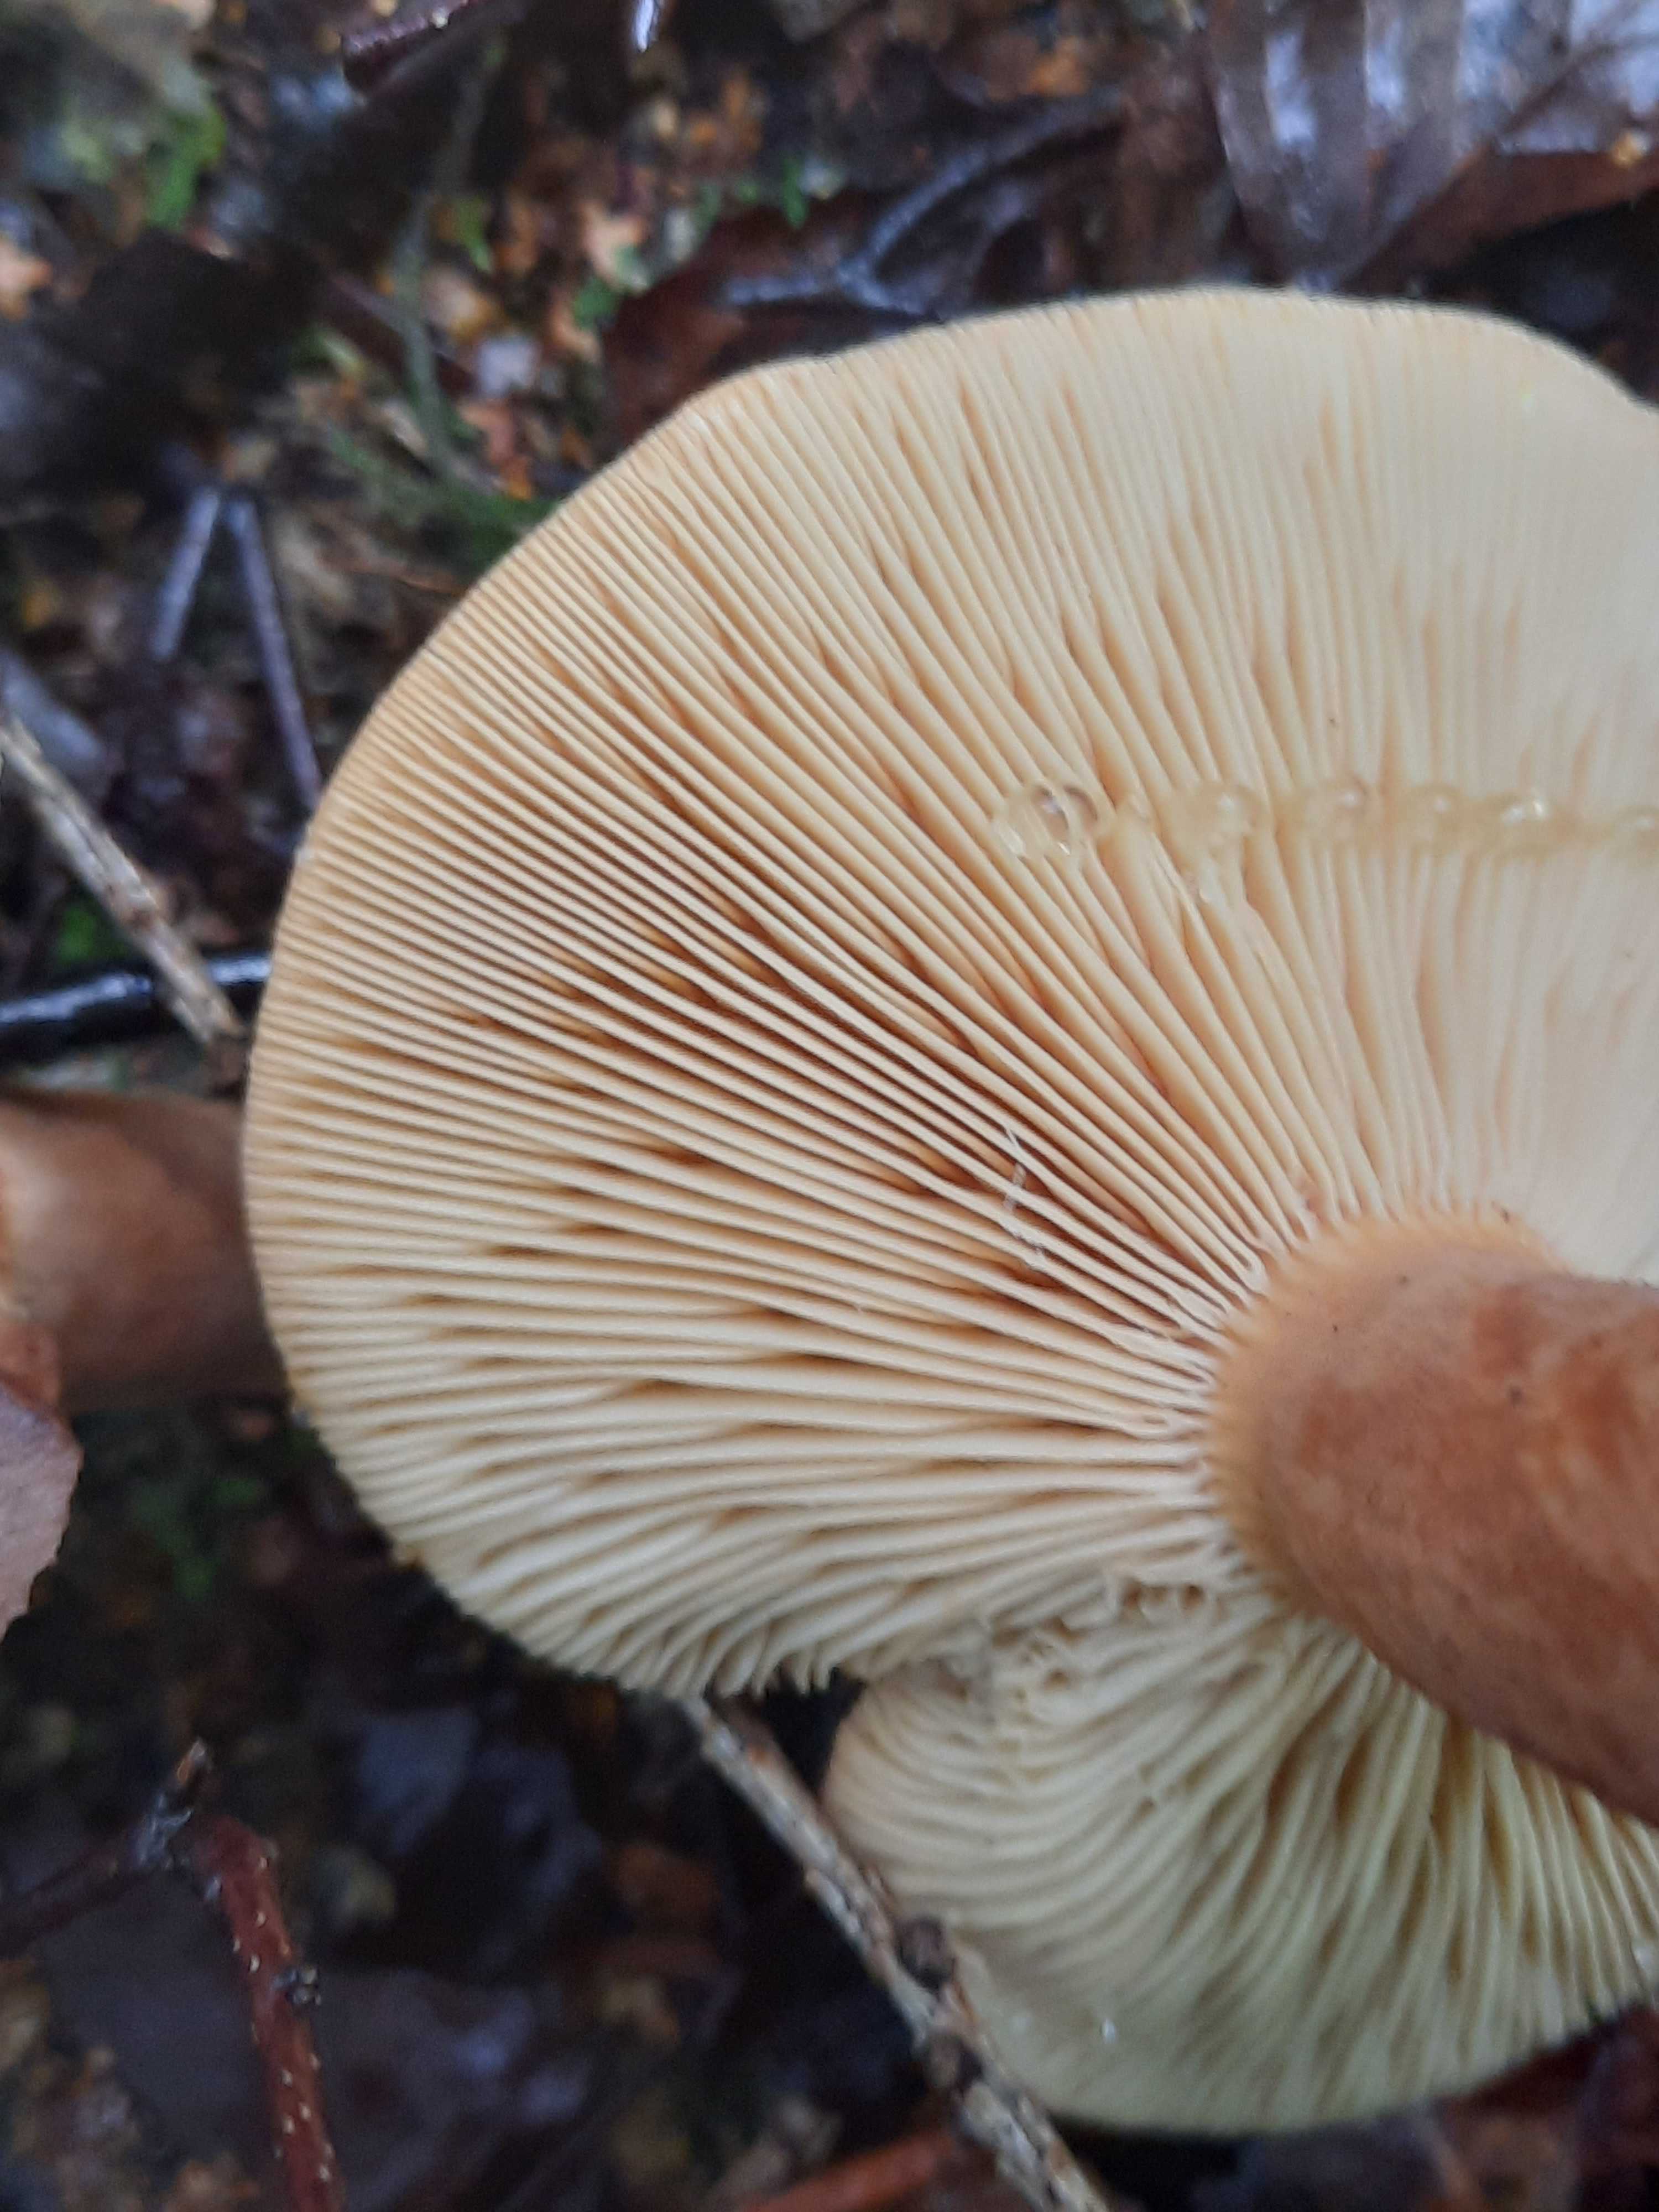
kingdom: Fungi
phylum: Basidiomycota
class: Agaricomycetes
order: Russulales
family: Russulaceae
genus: Lactarius
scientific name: Lactarius helvus
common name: mose-mælkehat
